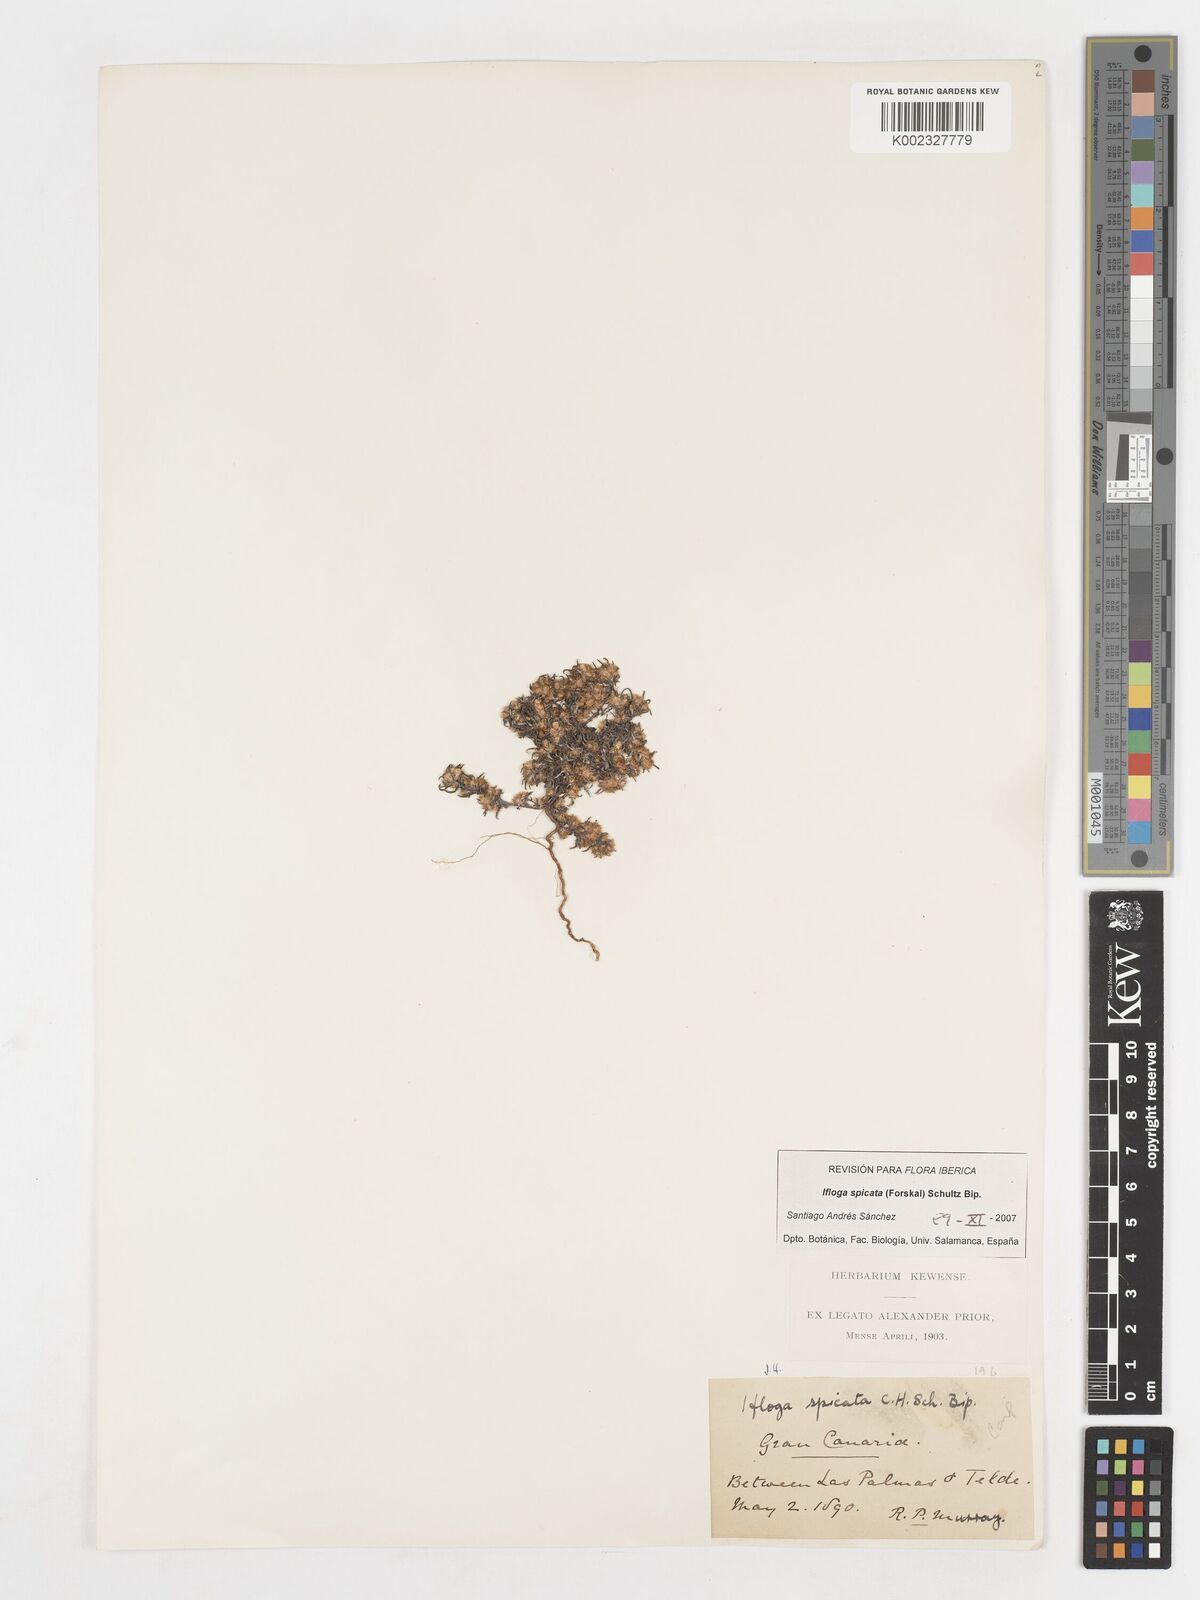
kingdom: Plantae
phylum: Tracheophyta
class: Magnoliopsida
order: Asterales
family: Asteraceae
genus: Ifloga
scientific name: Ifloga spicata
